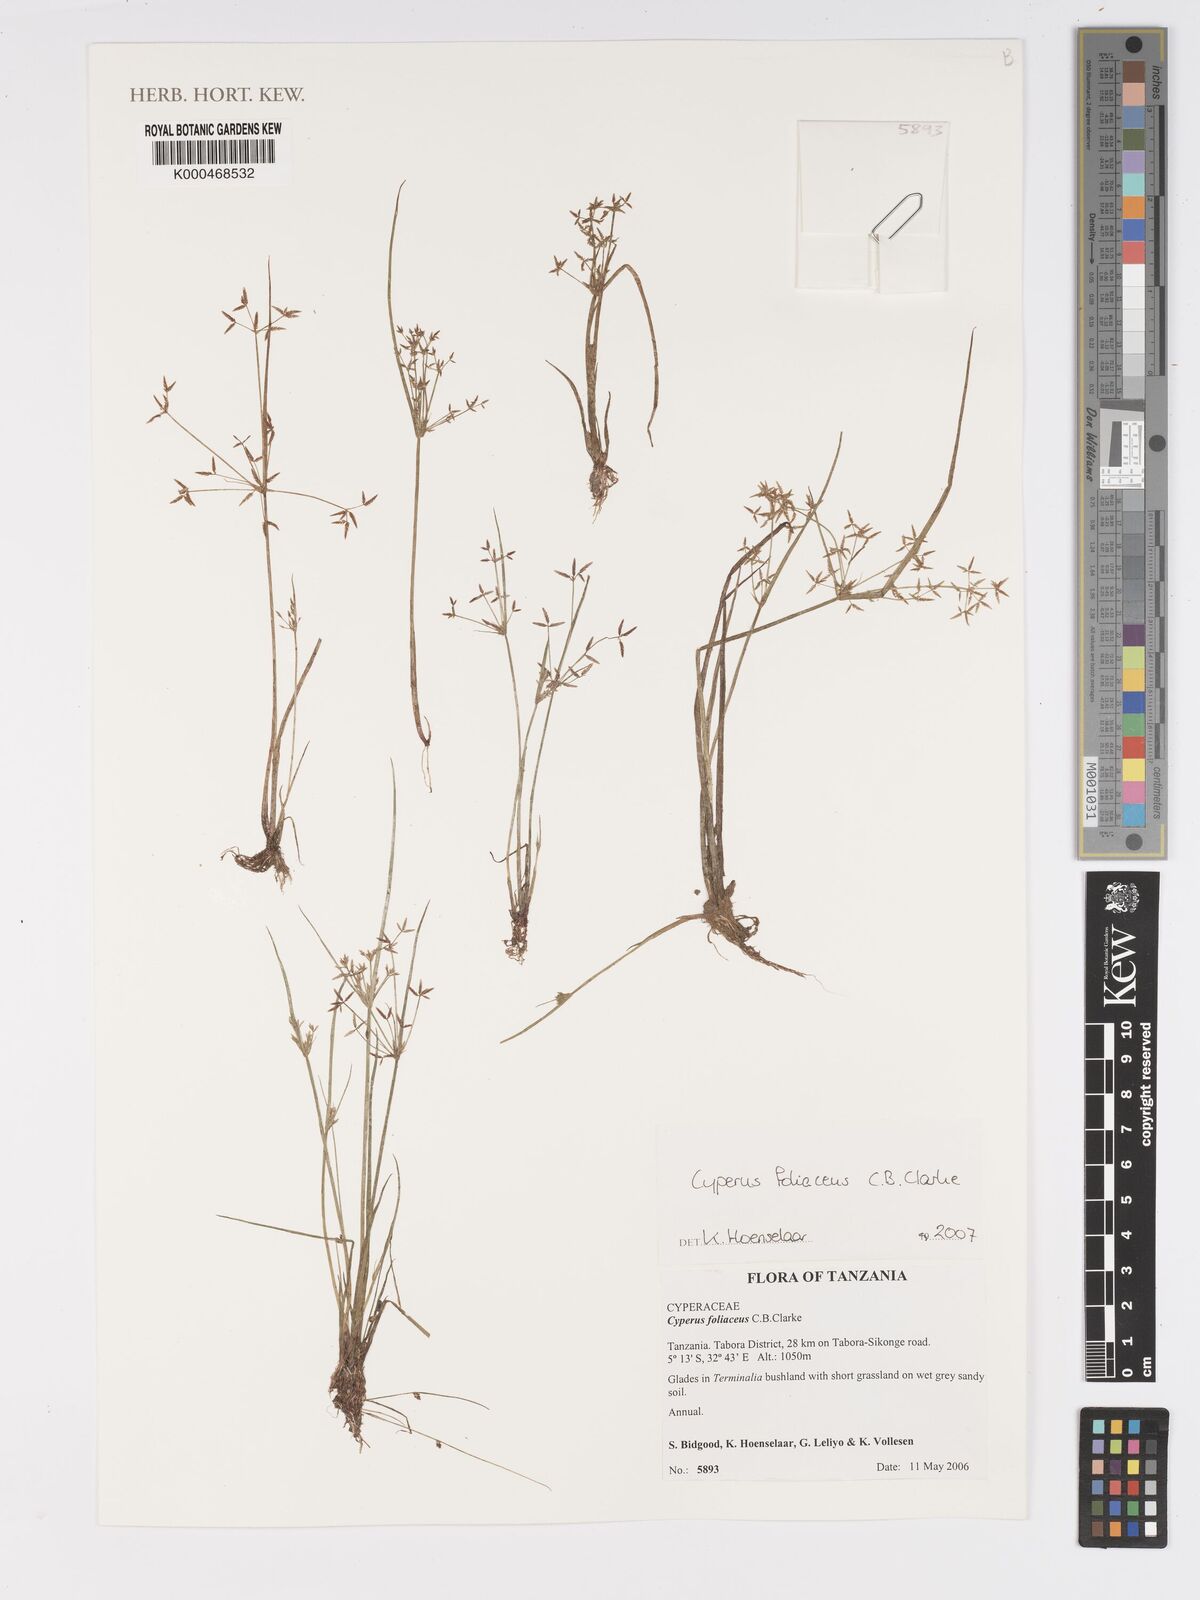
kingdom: Plantae
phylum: Tracheophyta
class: Liliopsida
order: Poales
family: Cyperaceae
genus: Cyperus
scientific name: Cyperus foliaceus
